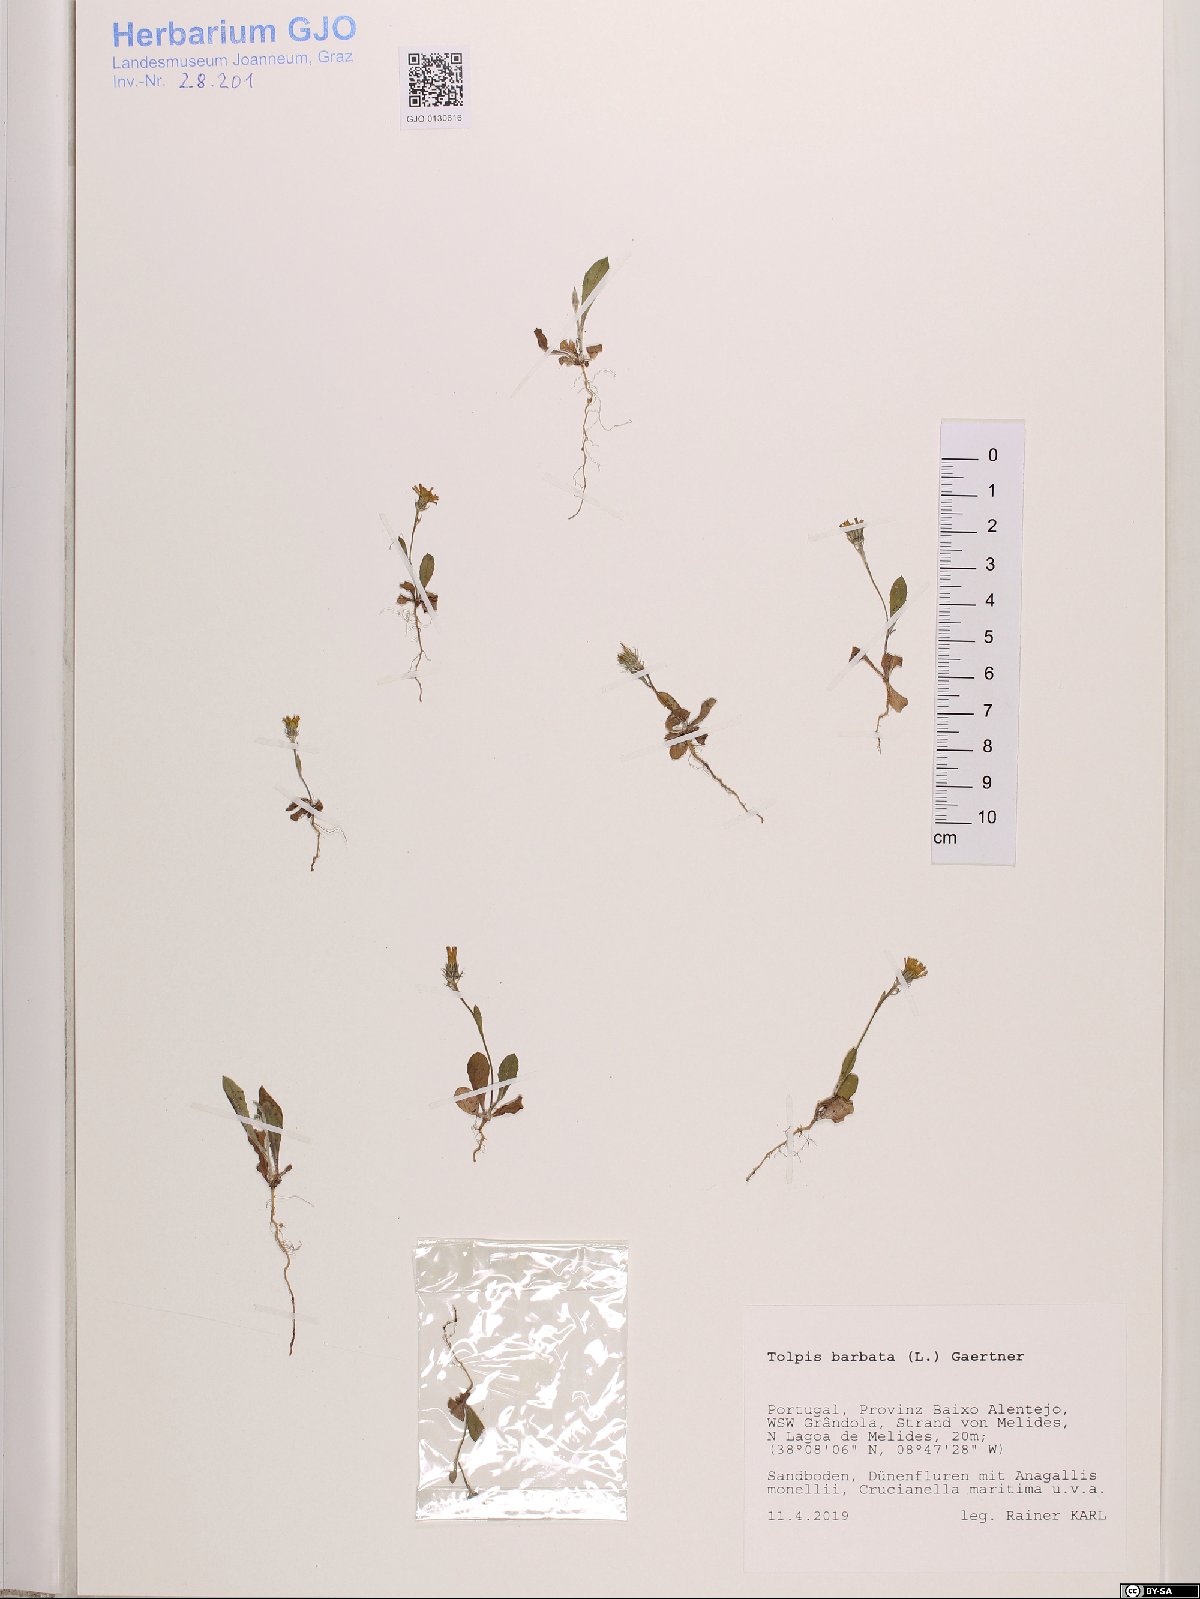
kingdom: Plantae
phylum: Tracheophyta
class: Magnoliopsida
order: Asterales
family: Asteraceae
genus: Tolpis
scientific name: Tolpis barbata
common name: Yellow hawkweed
